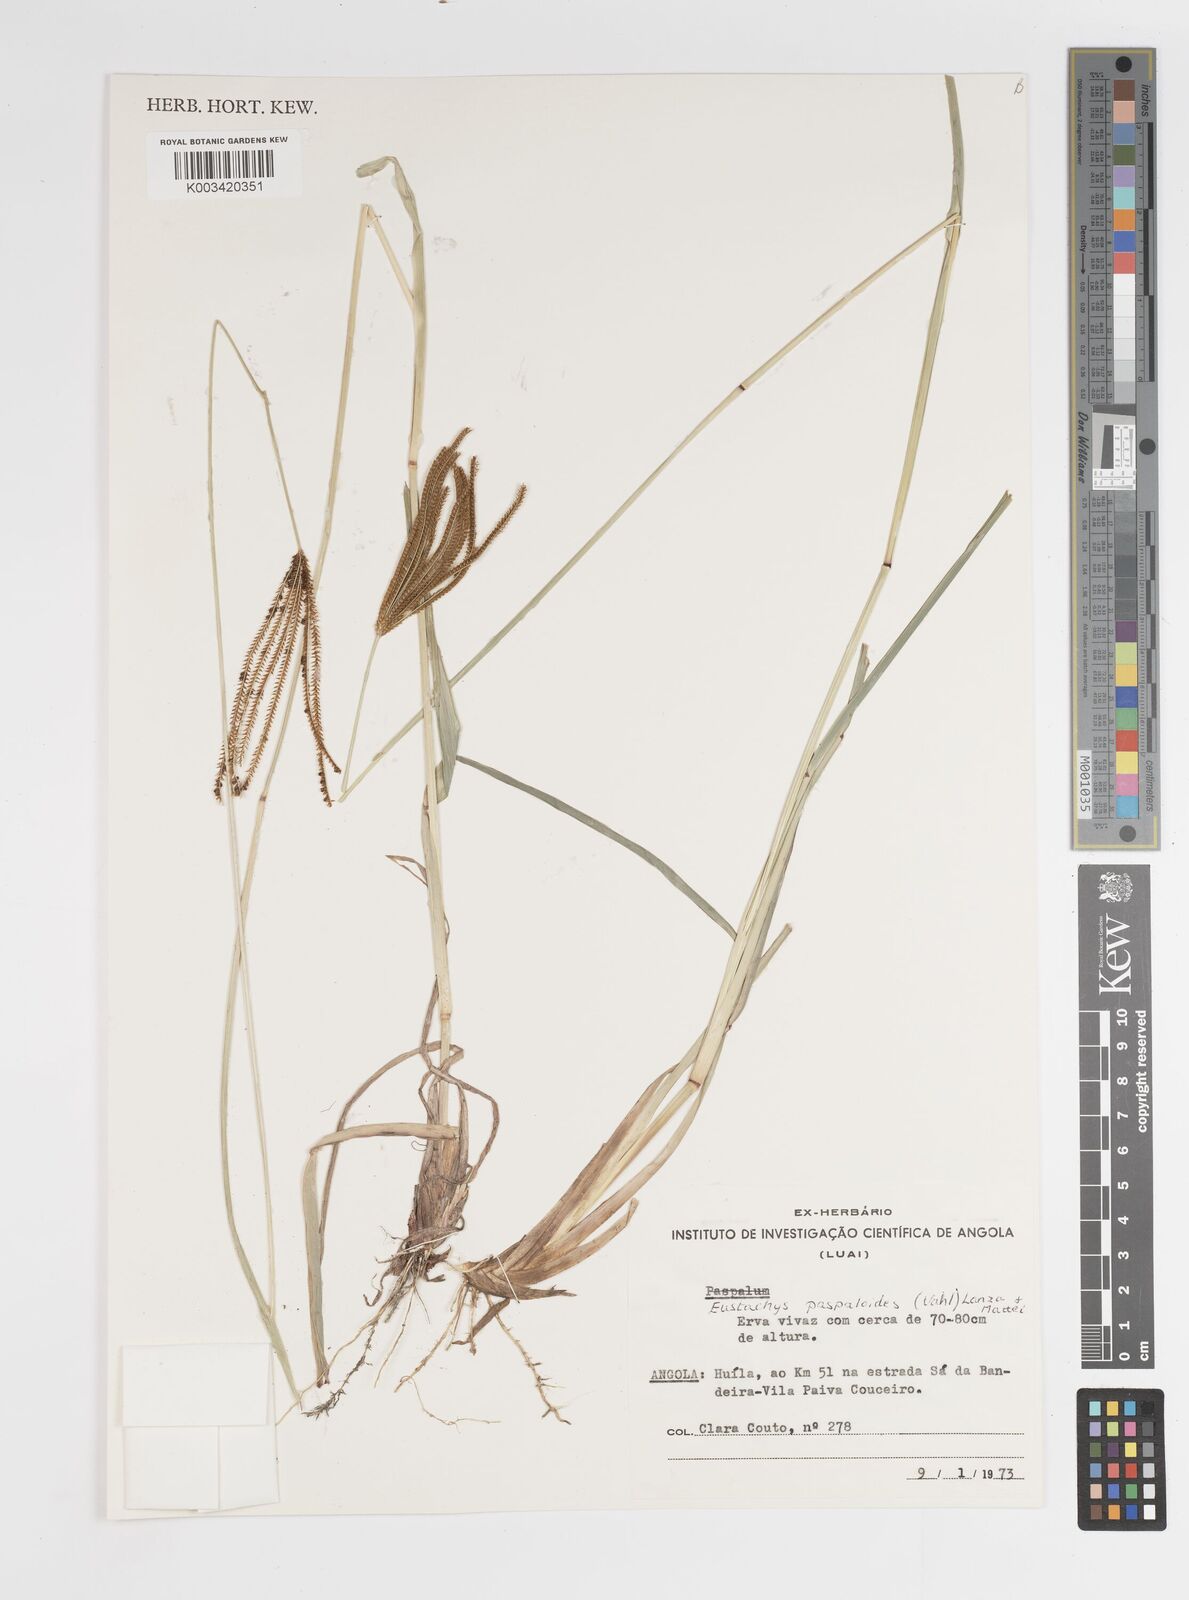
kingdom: Plantae
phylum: Tracheophyta
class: Liliopsida
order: Poales
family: Poaceae
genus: Eustachys
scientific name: Eustachys paspaloides
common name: Caribbean fingergrass
